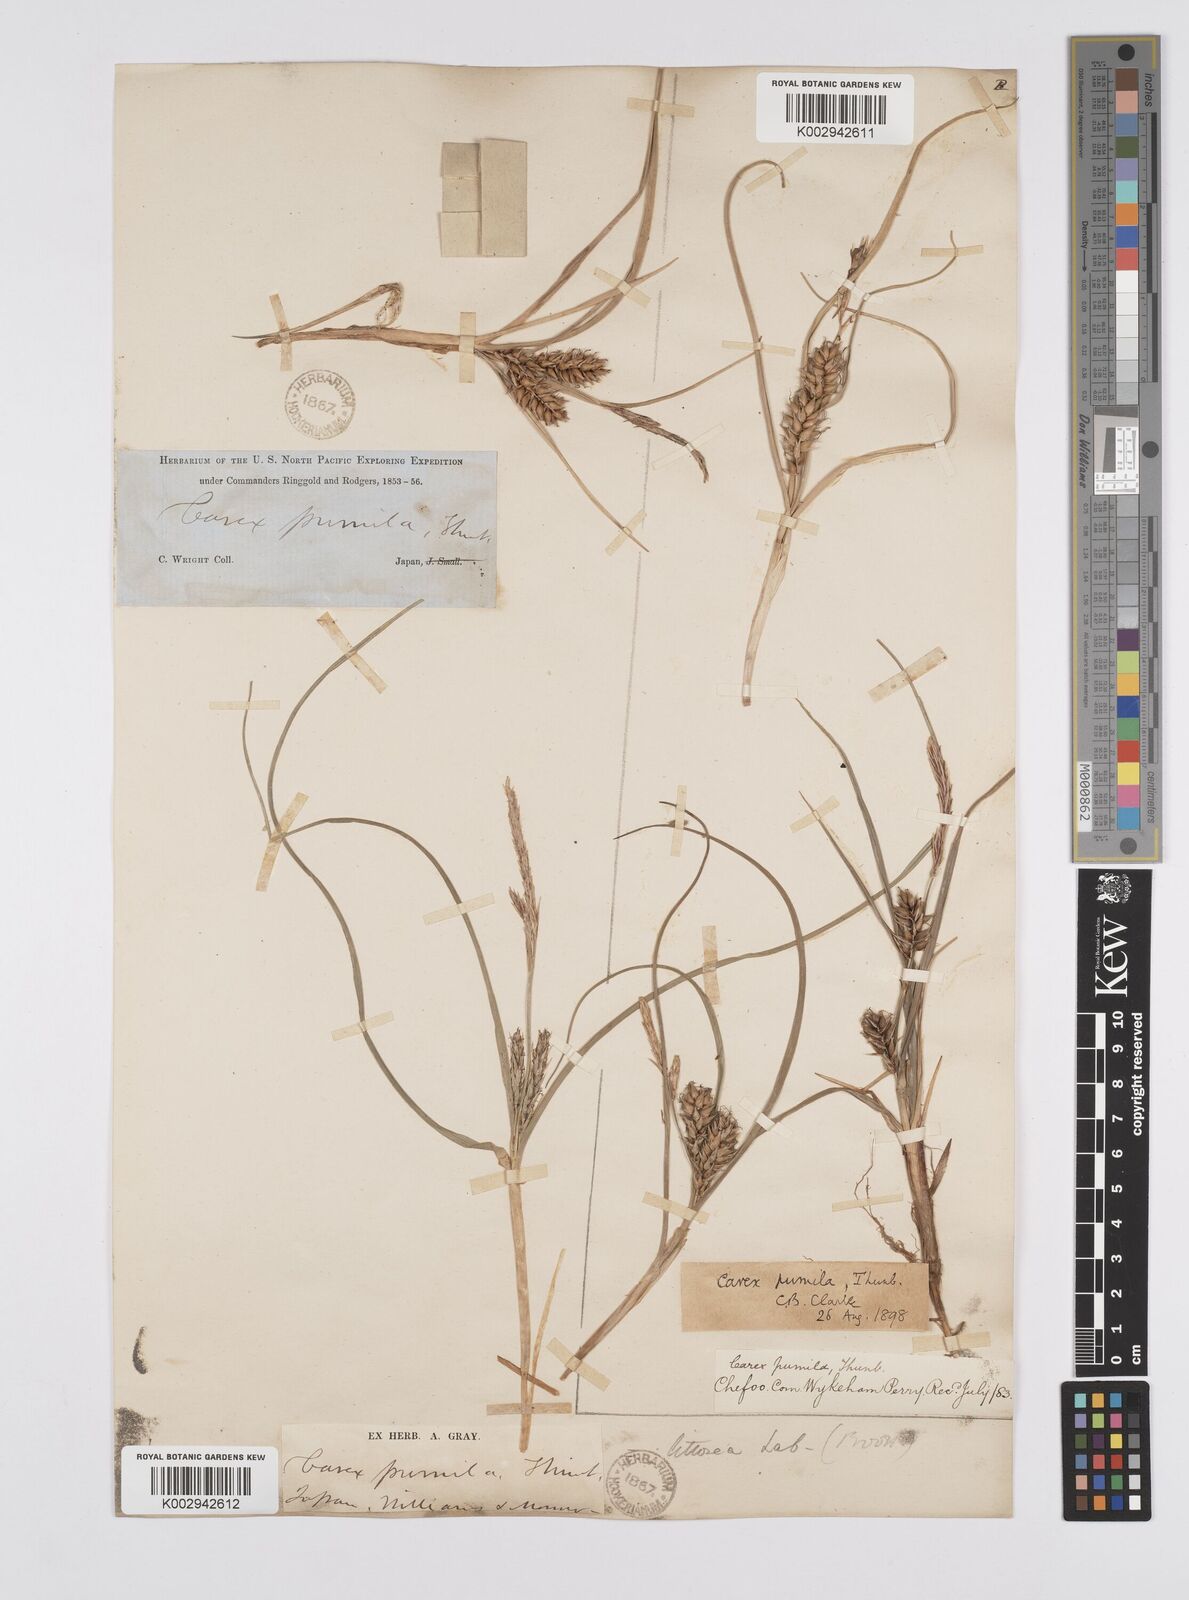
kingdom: Plantae
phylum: Tracheophyta
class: Liliopsida
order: Poales
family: Cyperaceae
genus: Carex
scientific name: Carex pumila
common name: Dwarf sedge
